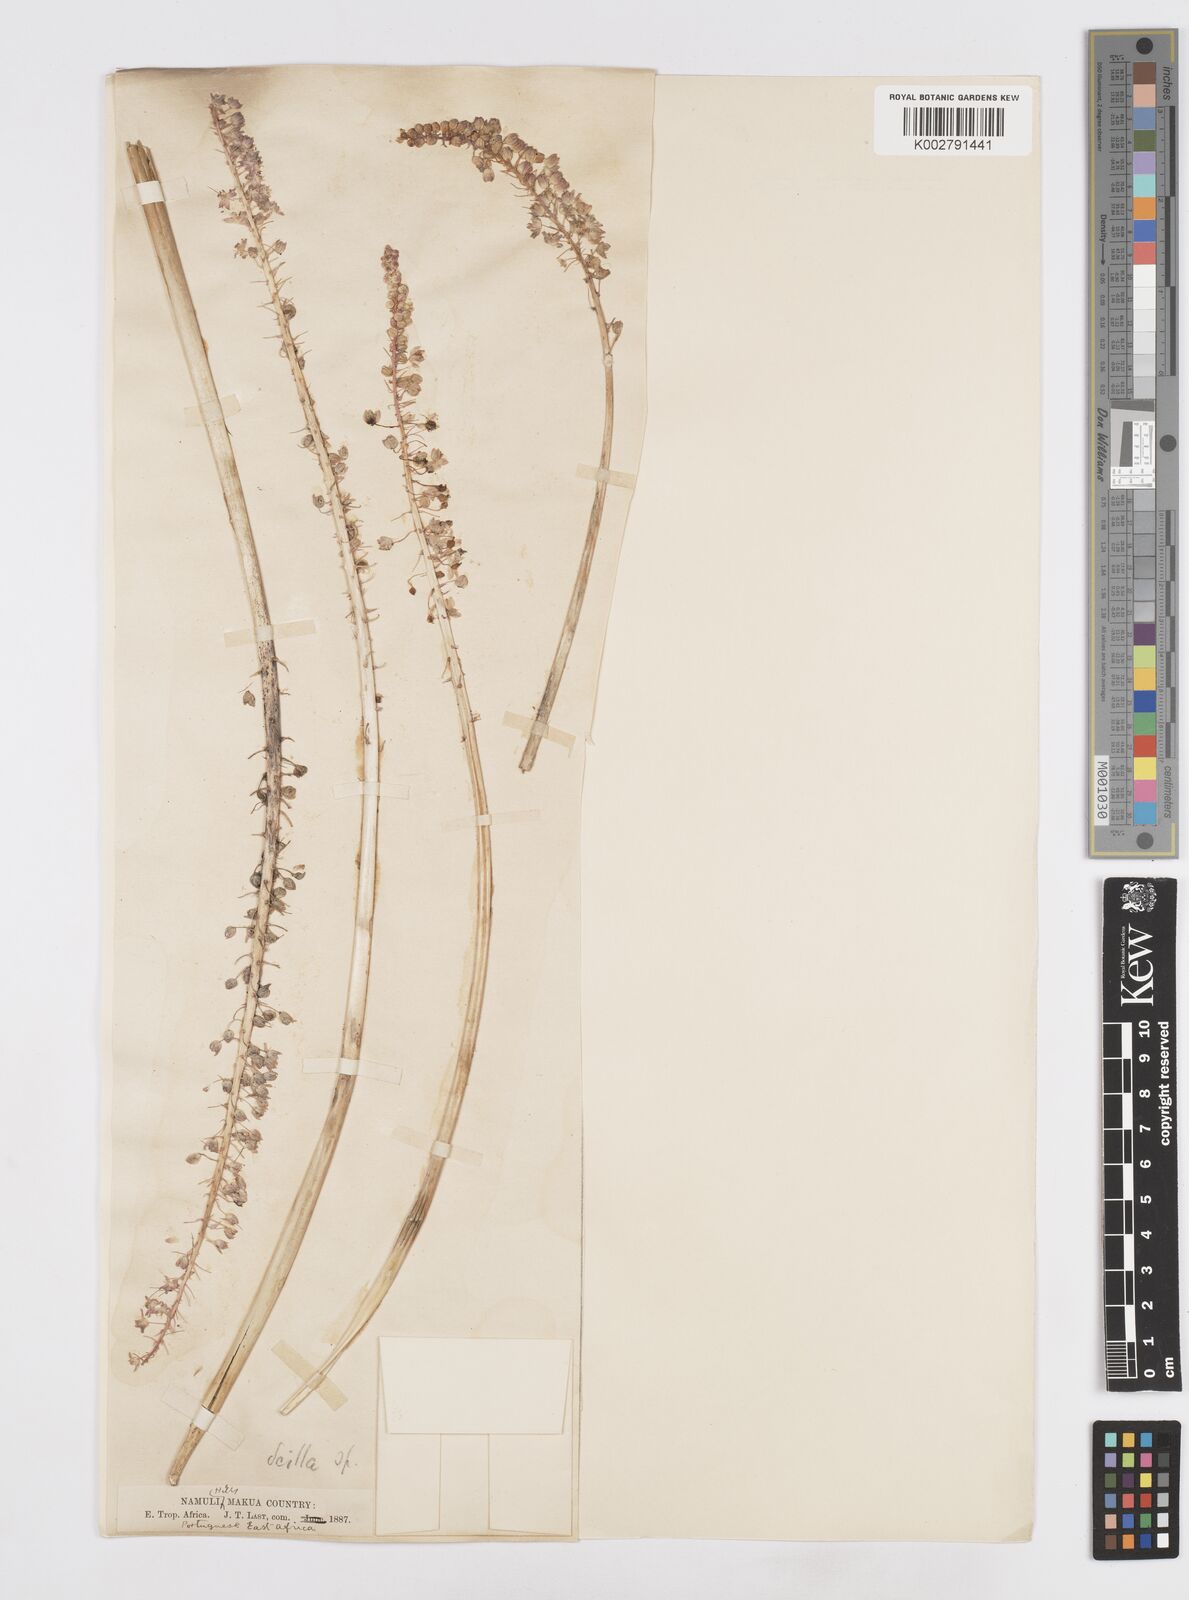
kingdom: Plantae
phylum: Tracheophyta
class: Liliopsida
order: Asparagales
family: Asparagaceae
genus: Merwilla
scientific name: Merwilla plumbea
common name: Blue-squill
